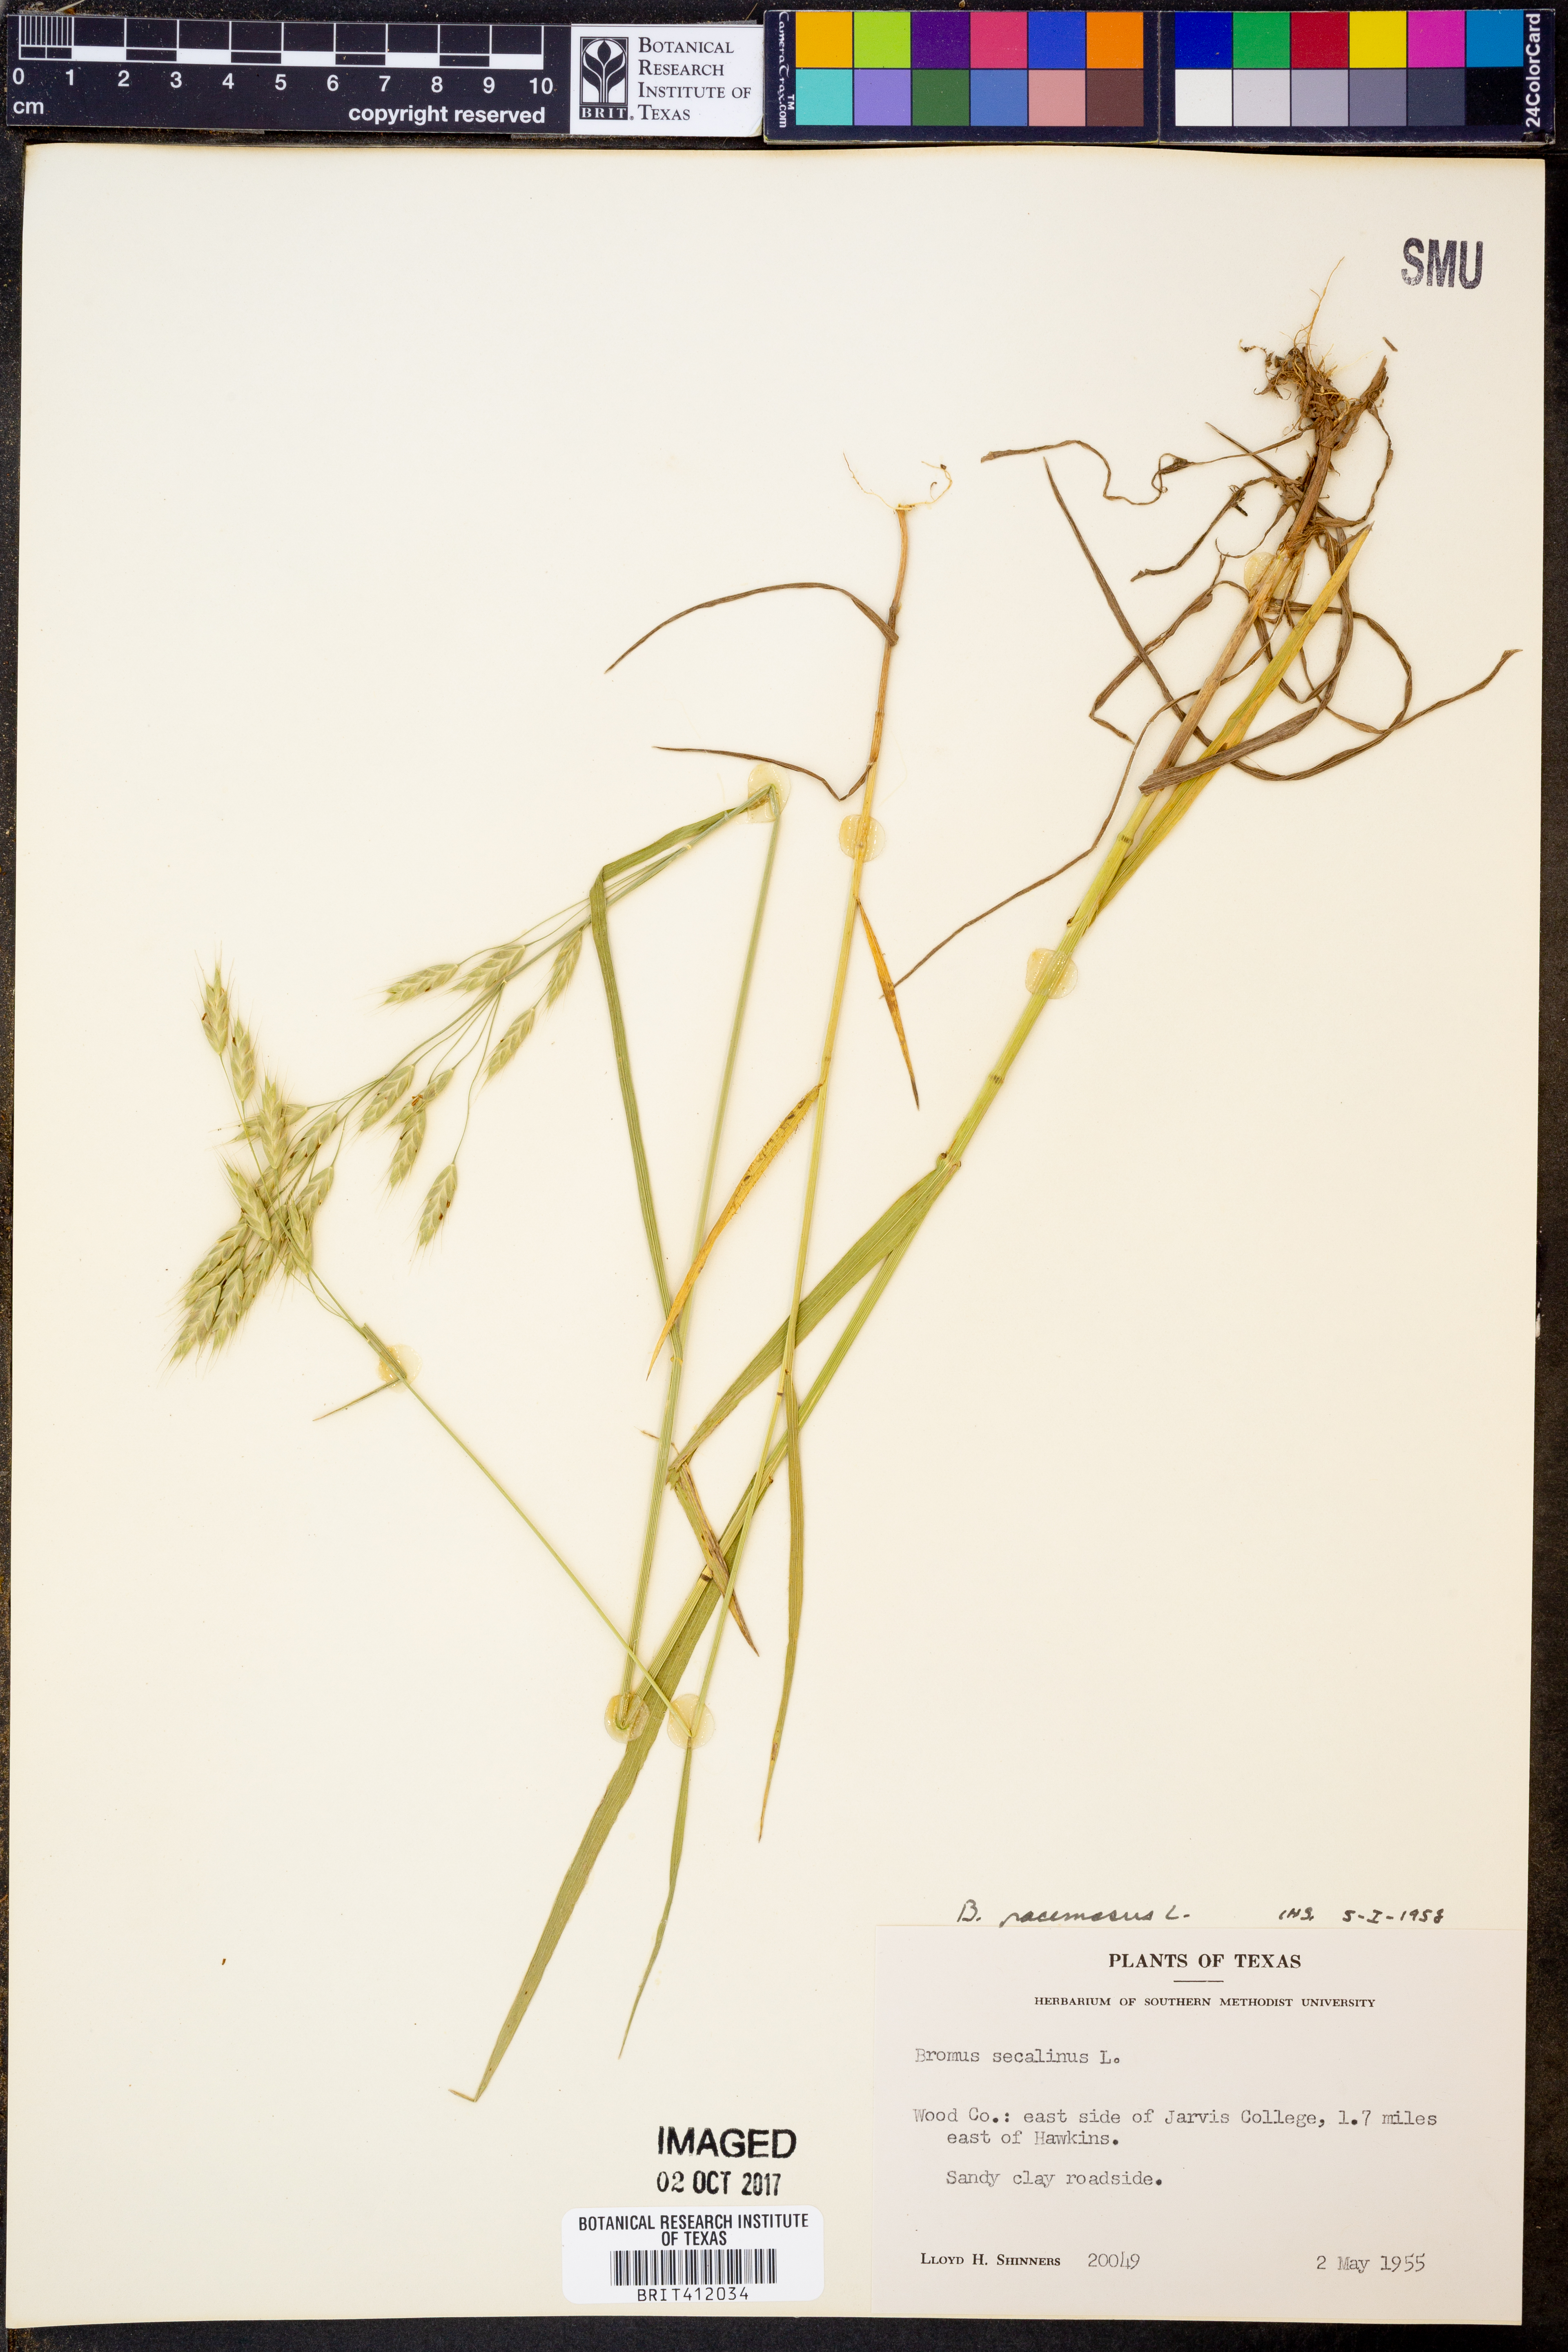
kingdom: Plantae
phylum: Tracheophyta
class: Liliopsida
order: Poales
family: Poaceae
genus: Bromus
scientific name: Bromus racemosus
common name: Bald brome
